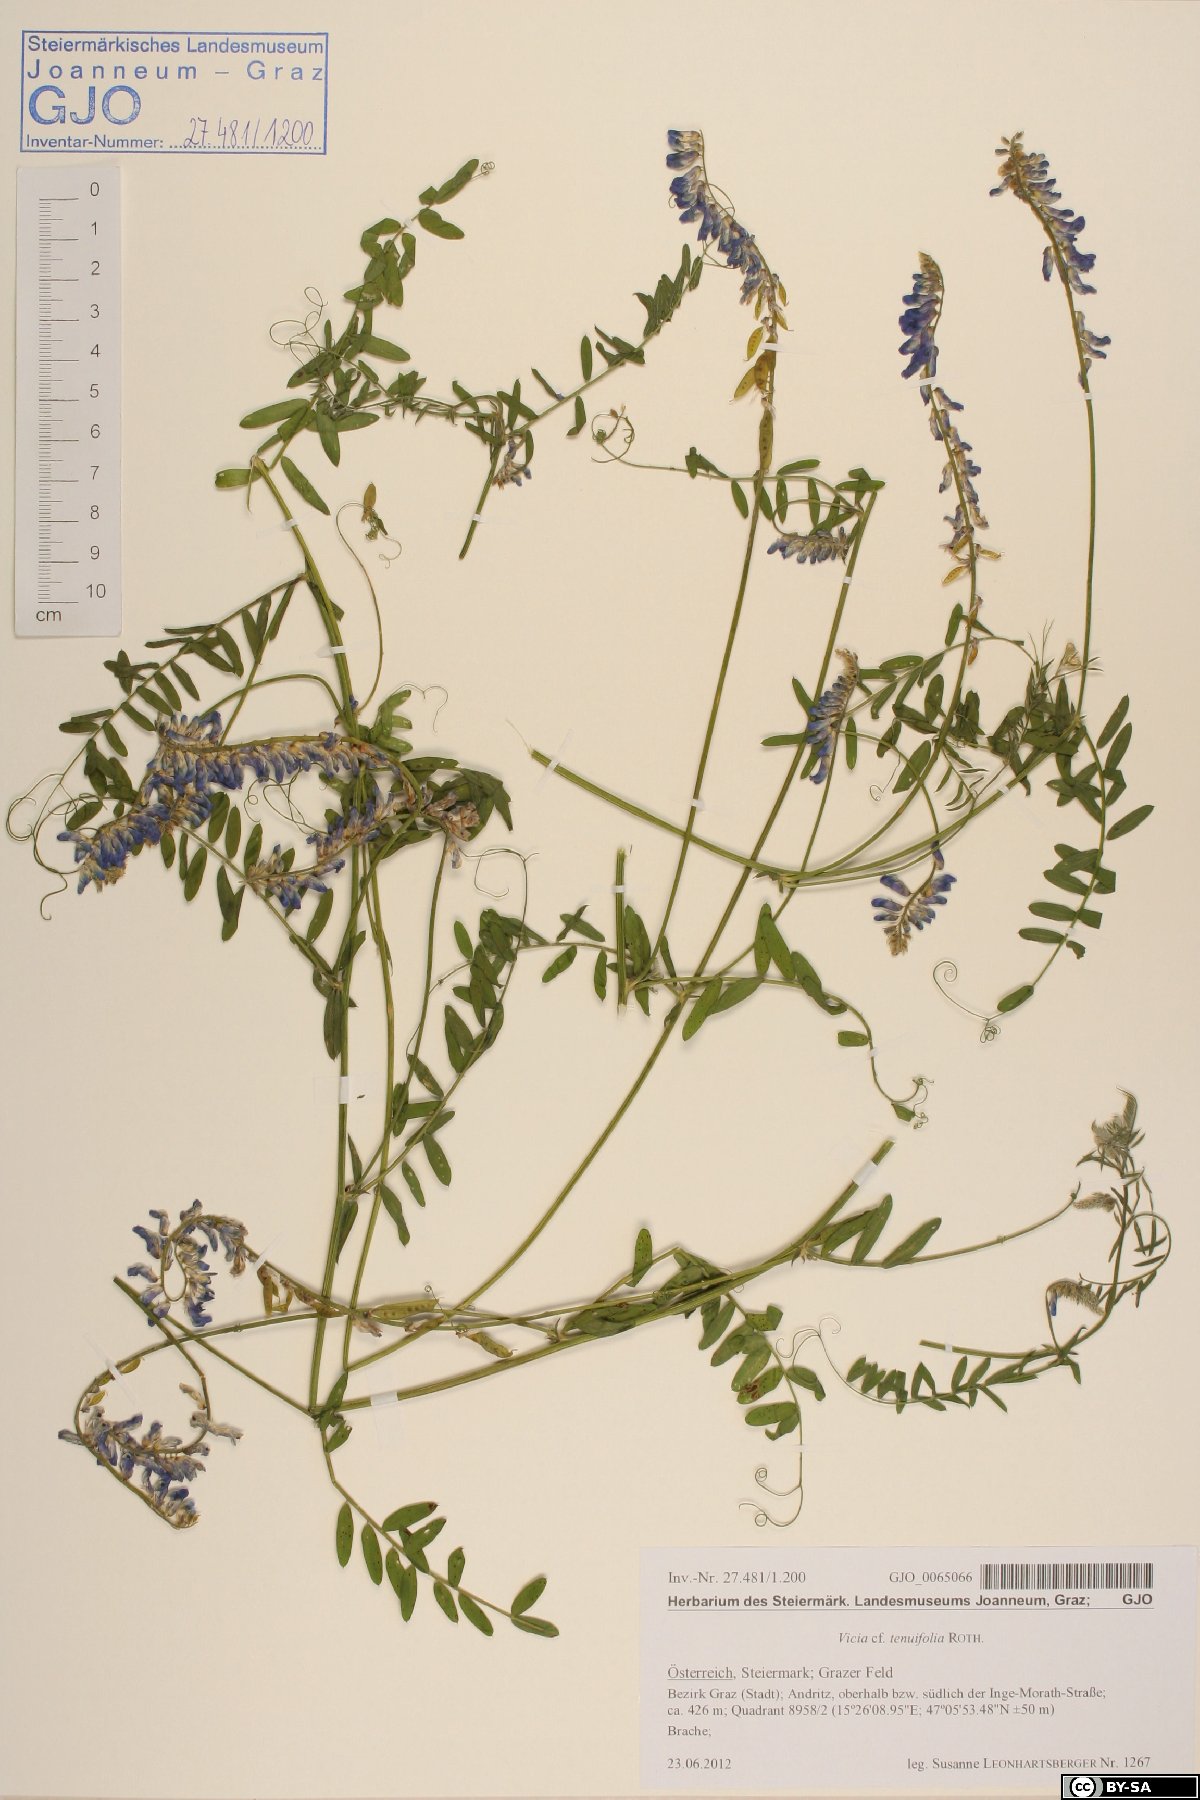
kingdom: Plantae
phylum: Tracheophyta
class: Magnoliopsida
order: Fabales
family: Fabaceae
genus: Vicia
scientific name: Vicia tenuifolia
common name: Fine-leaved vetch
